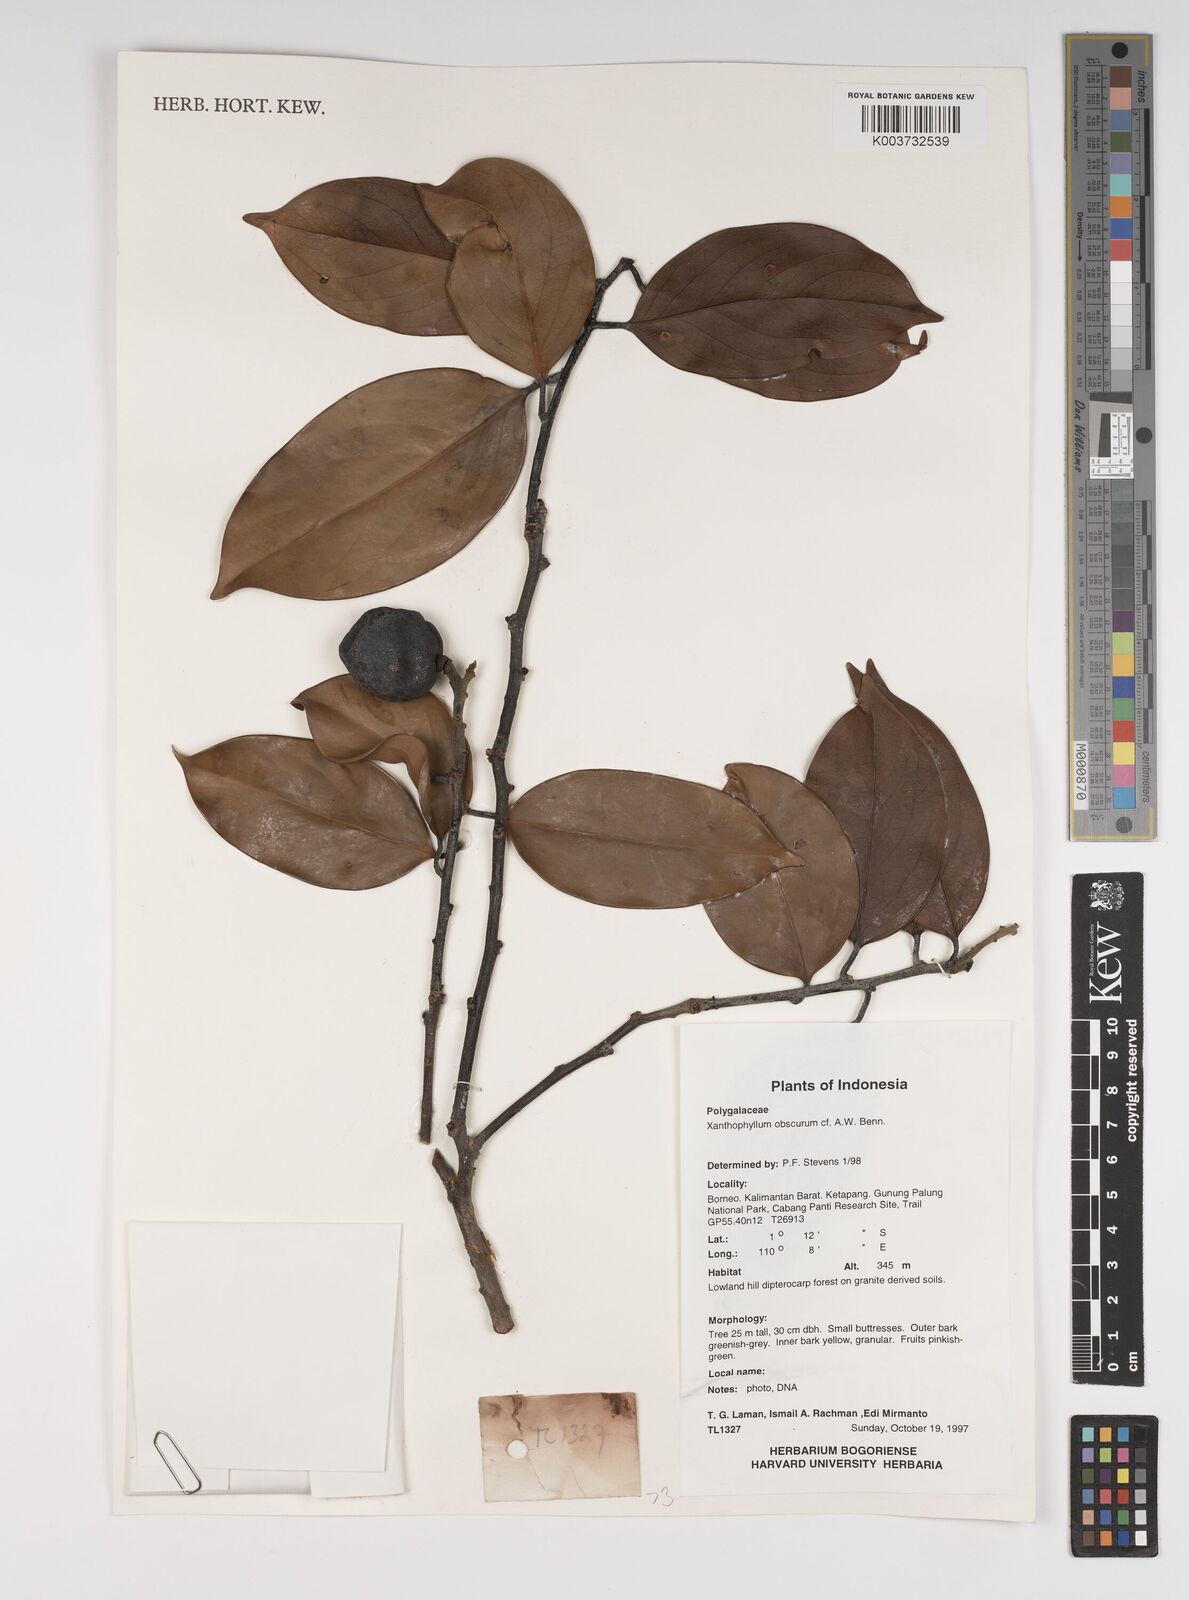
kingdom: Plantae
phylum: Tracheophyta
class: Magnoliopsida
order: Fabales
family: Polygalaceae
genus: Xanthophyllum
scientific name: Xanthophyllum obscurum
